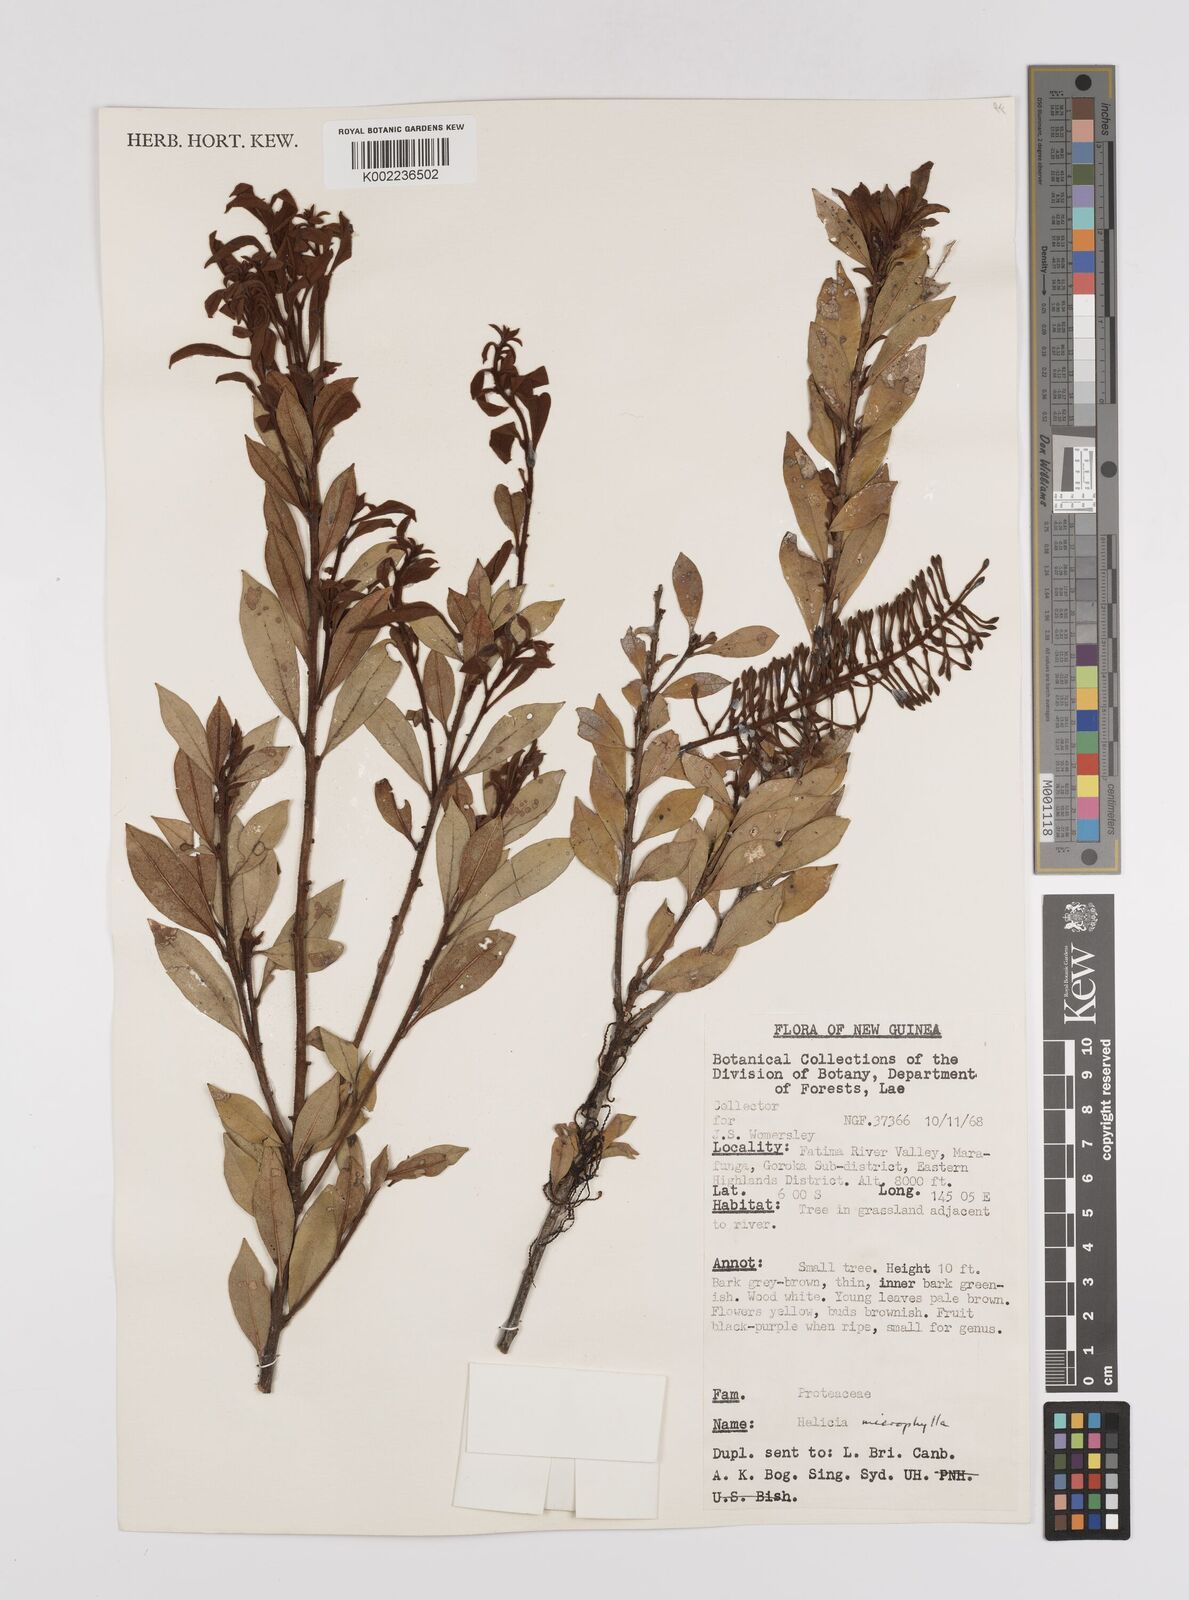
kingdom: Plantae
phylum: Tracheophyta
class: Magnoliopsida
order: Proteales
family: Proteaceae
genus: Helicia
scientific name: Helicia microphylla
